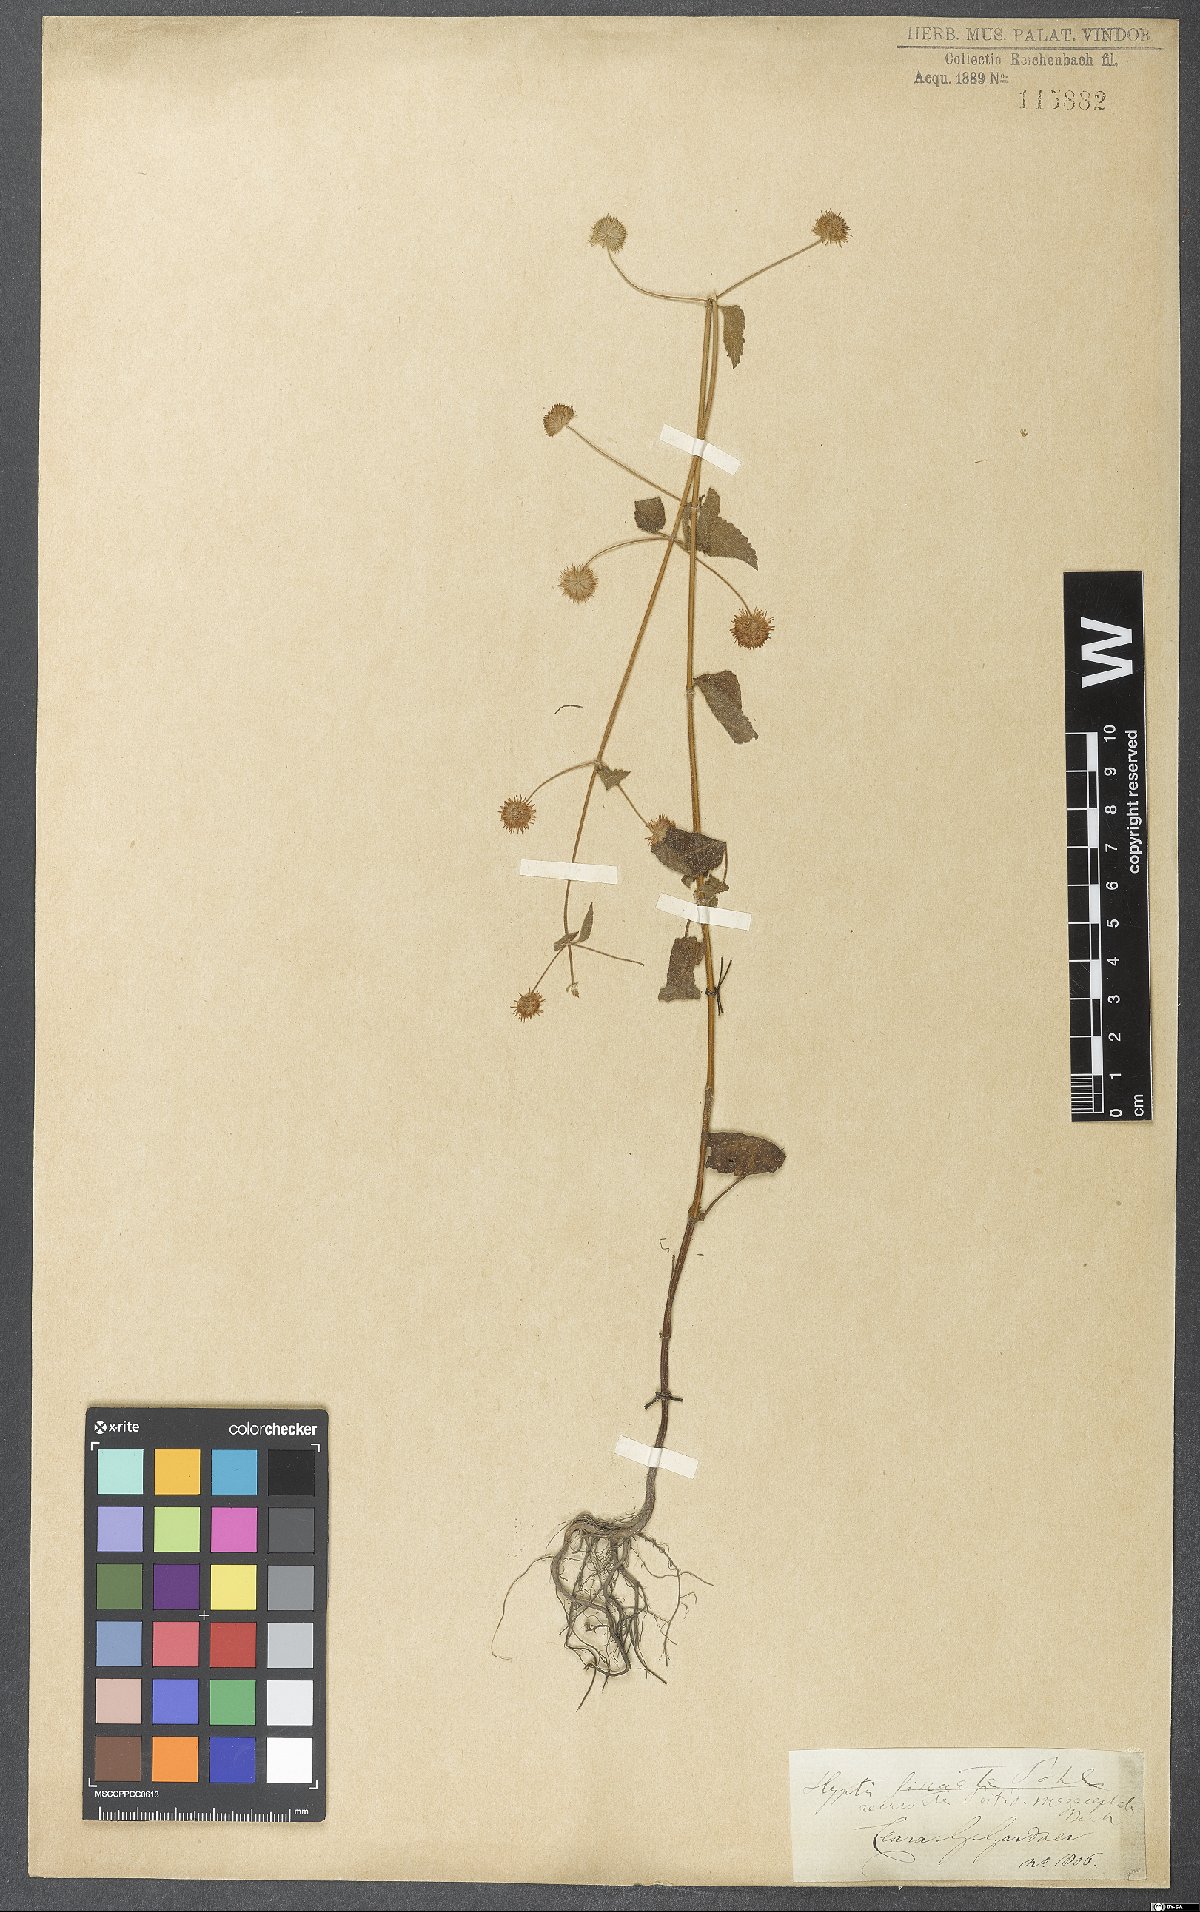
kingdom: Plantae
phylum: Tracheophyta
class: Magnoliopsida
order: Lamiales
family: Lamiaceae
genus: Hyptis
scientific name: Hyptis recurvata
